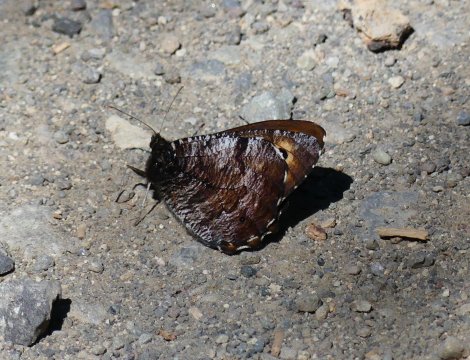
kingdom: Animalia
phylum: Arthropoda
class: Insecta
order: Lepidoptera
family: Nymphalidae
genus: Oeneis
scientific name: Oeneis nevadensis
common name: Great Arctic
